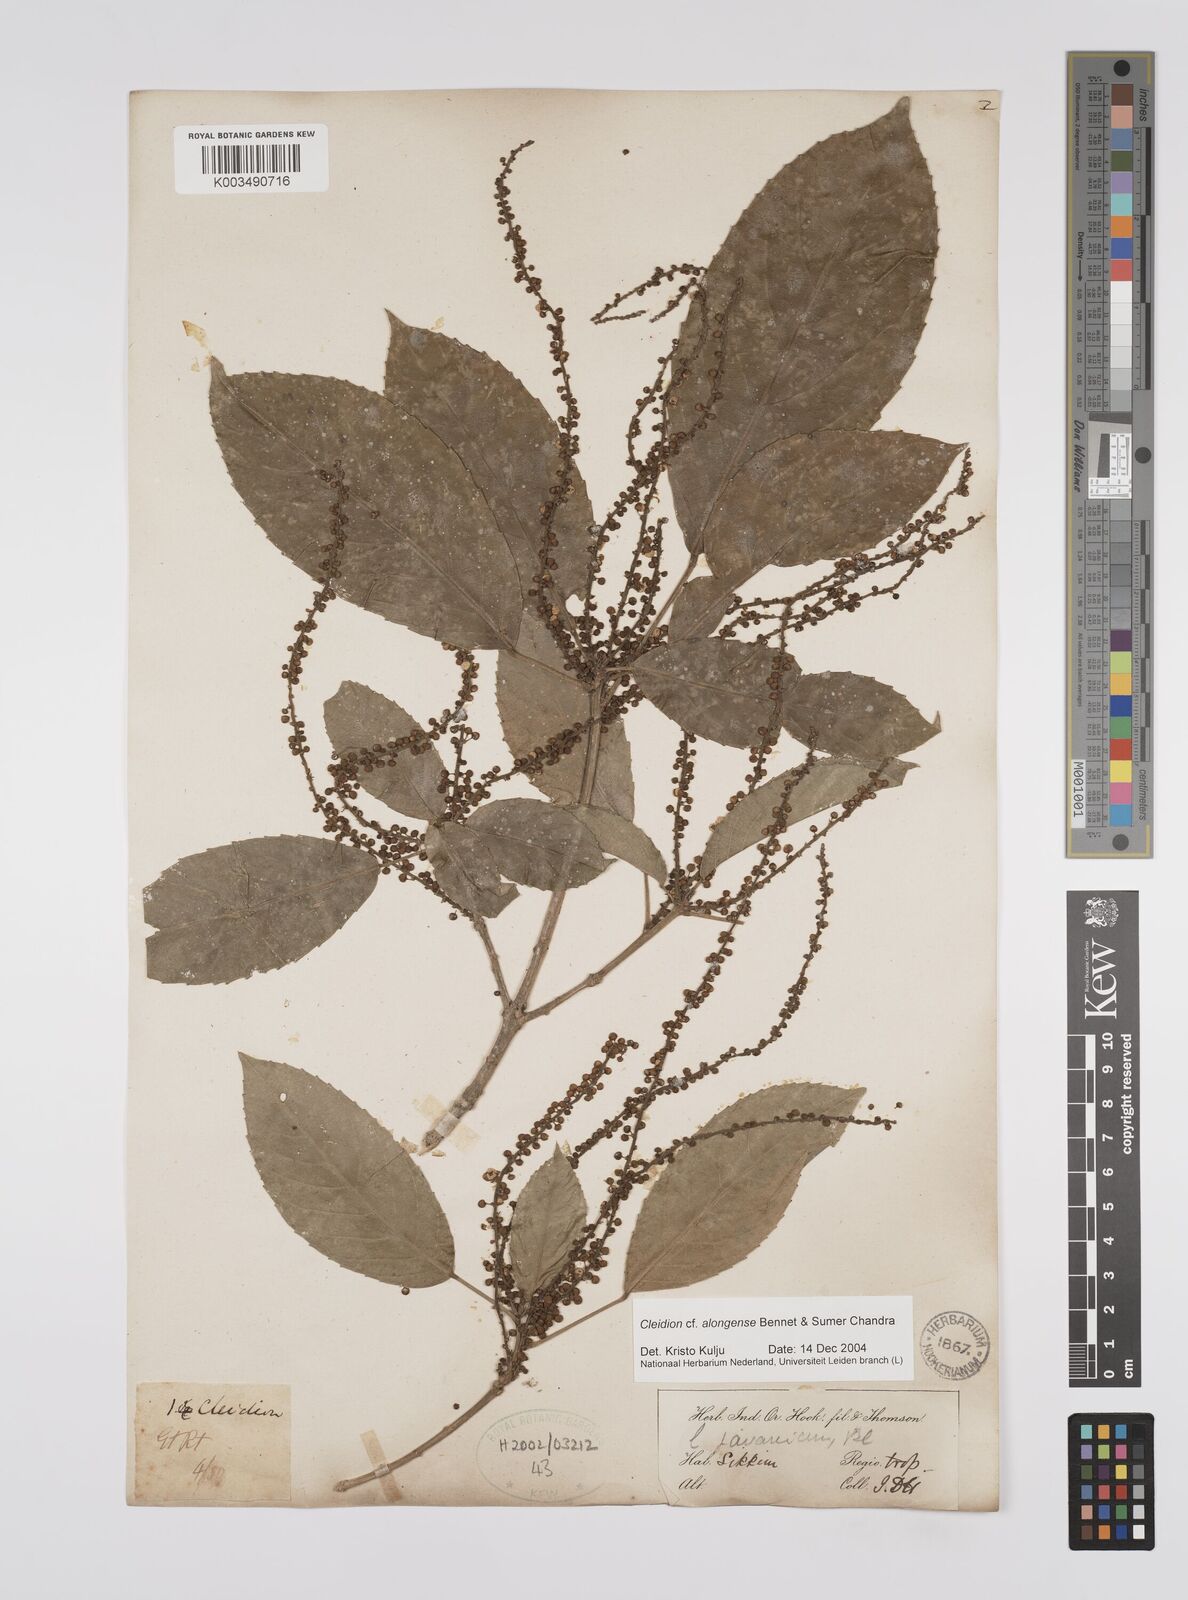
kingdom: Plantae
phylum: Tracheophyta
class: Magnoliopsida
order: Malpighiales
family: Euphorbiaceae
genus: Cleidion
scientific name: Cleidion javanicum
